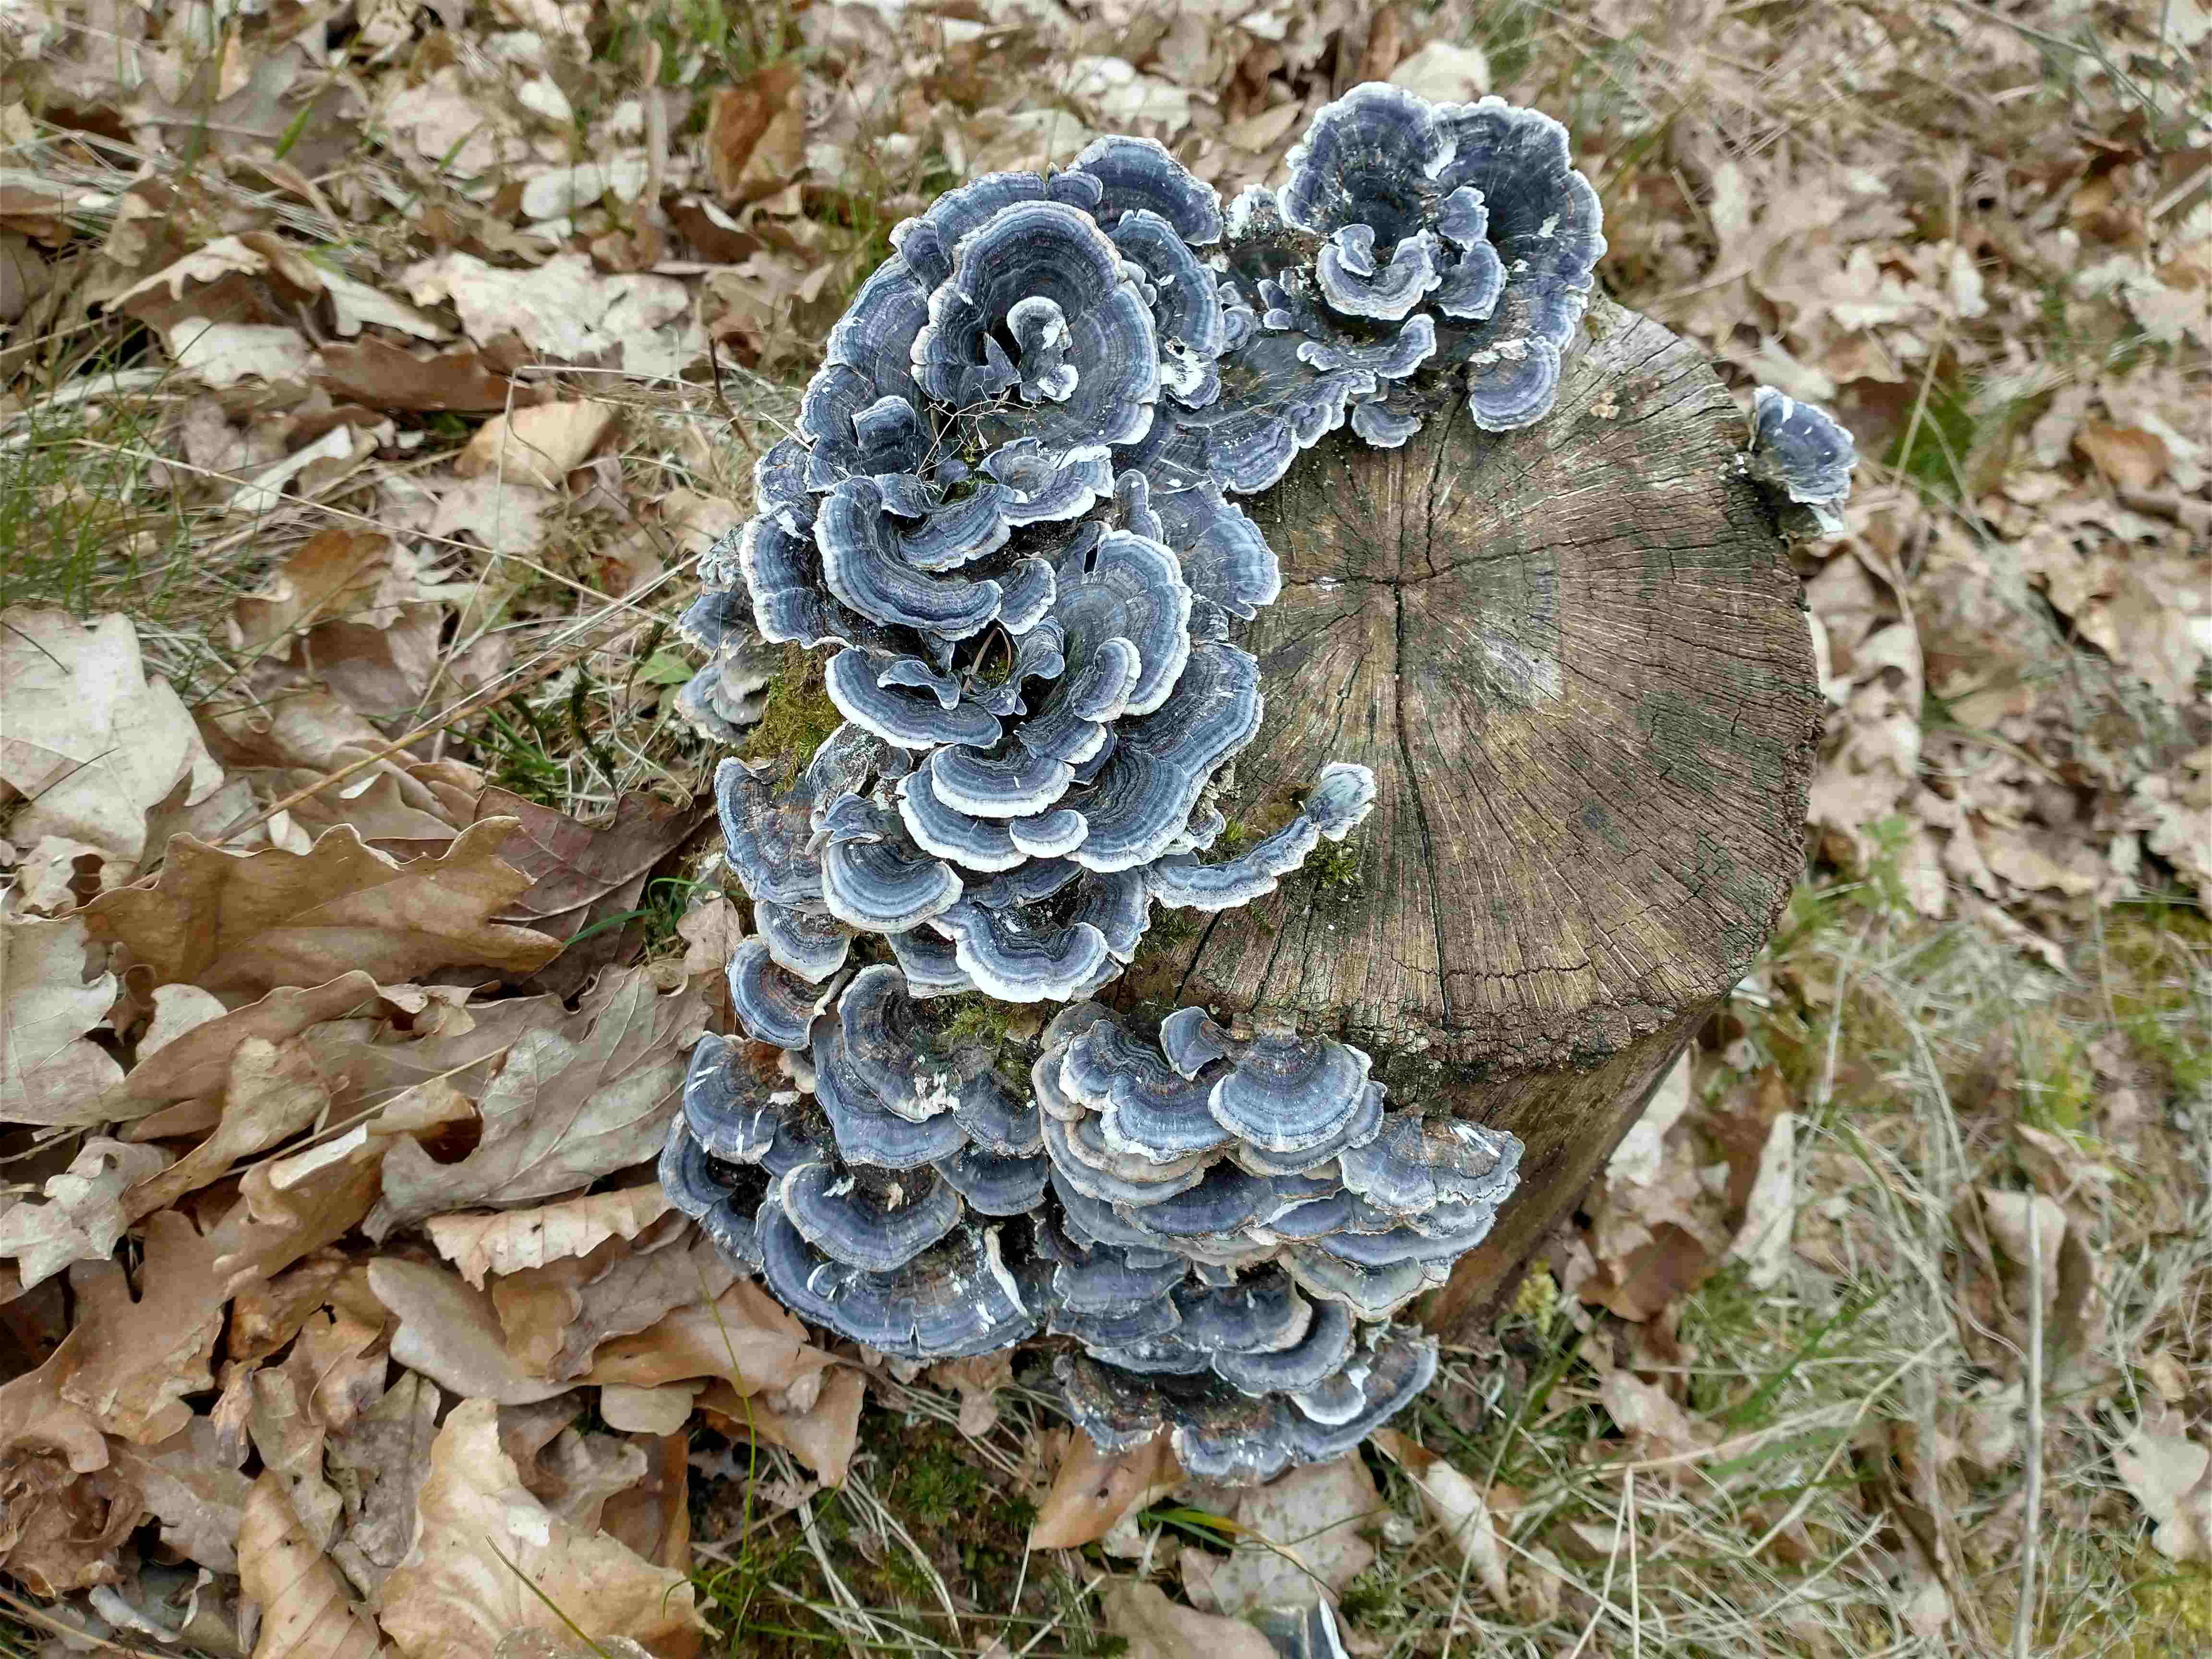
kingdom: Fungi
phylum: Basidiomycota
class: Agaricomycetes
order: Polyporales
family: Polyporaceae
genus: Trametes
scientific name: Trametes versicolor
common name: broget læderporesvamp
